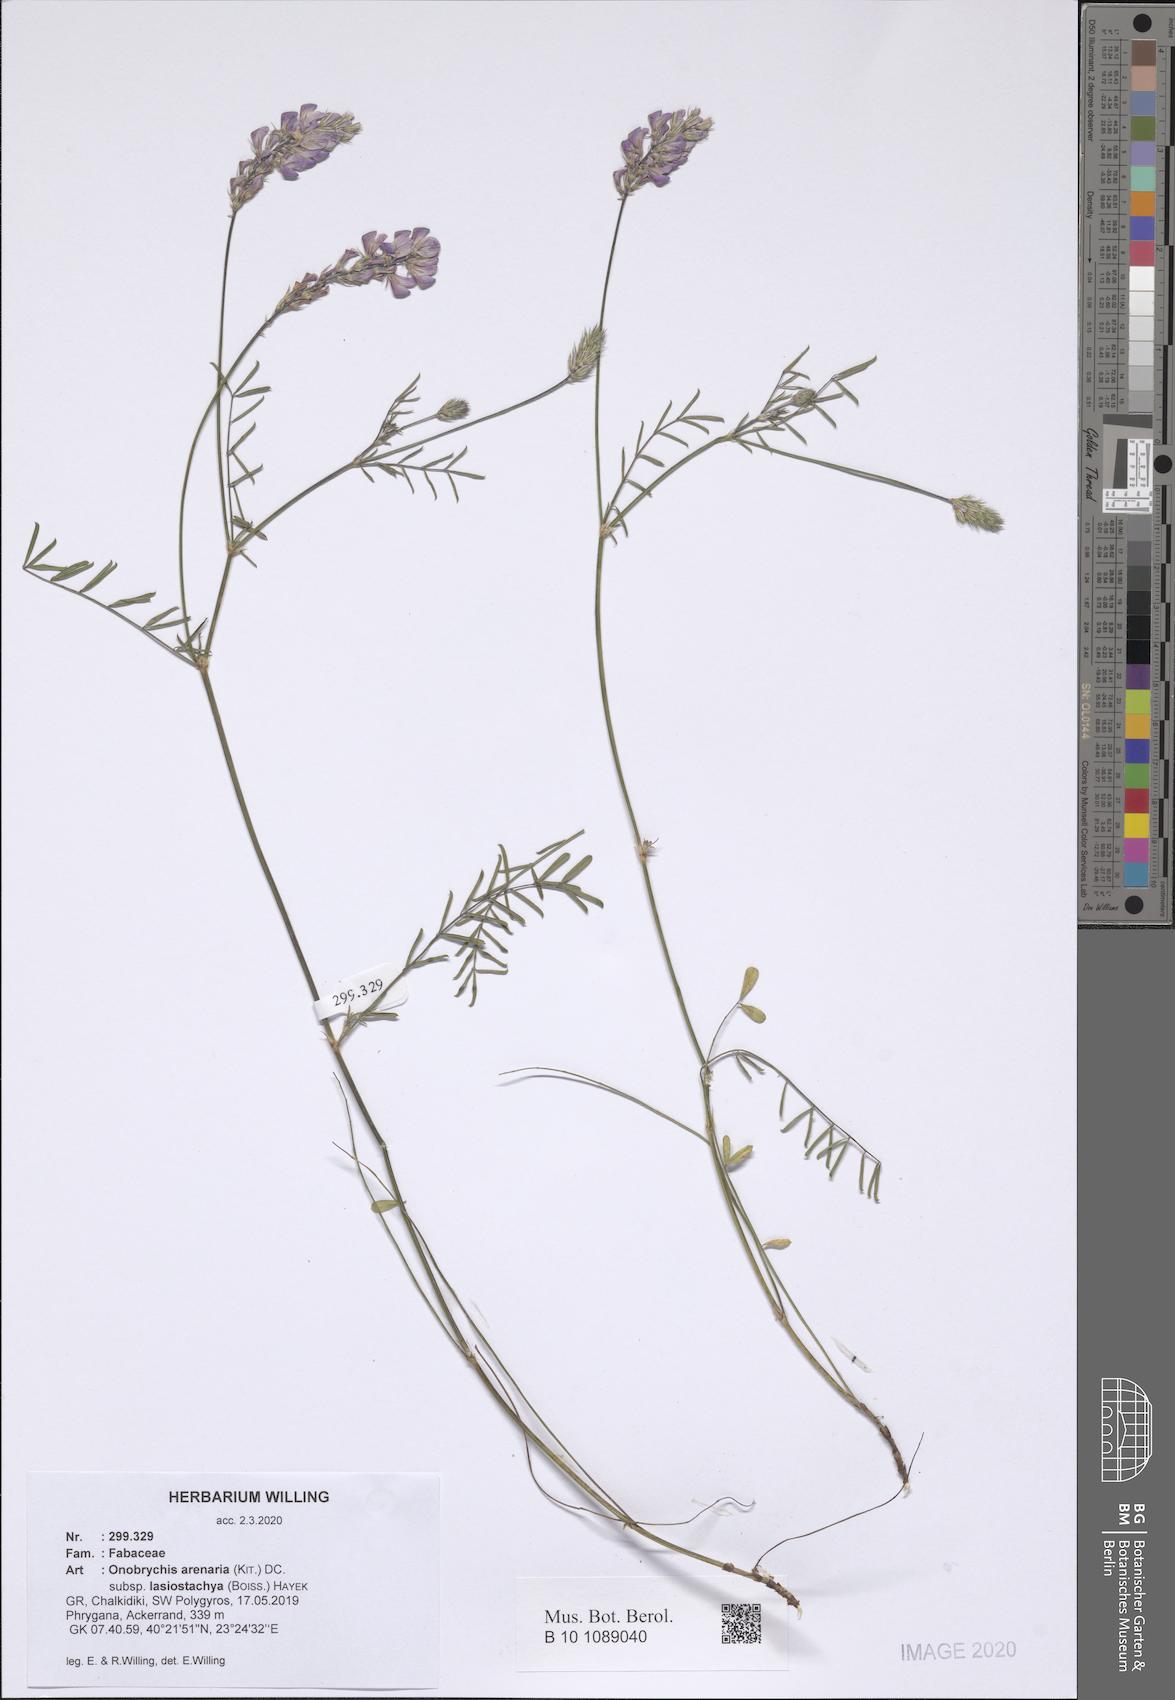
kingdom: Plantae
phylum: Tracheophyta
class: Magnoliopsida
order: Fabales
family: Fabaceae
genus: Onobrychis
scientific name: Onobrychis arenaria
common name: Sand esparcet
